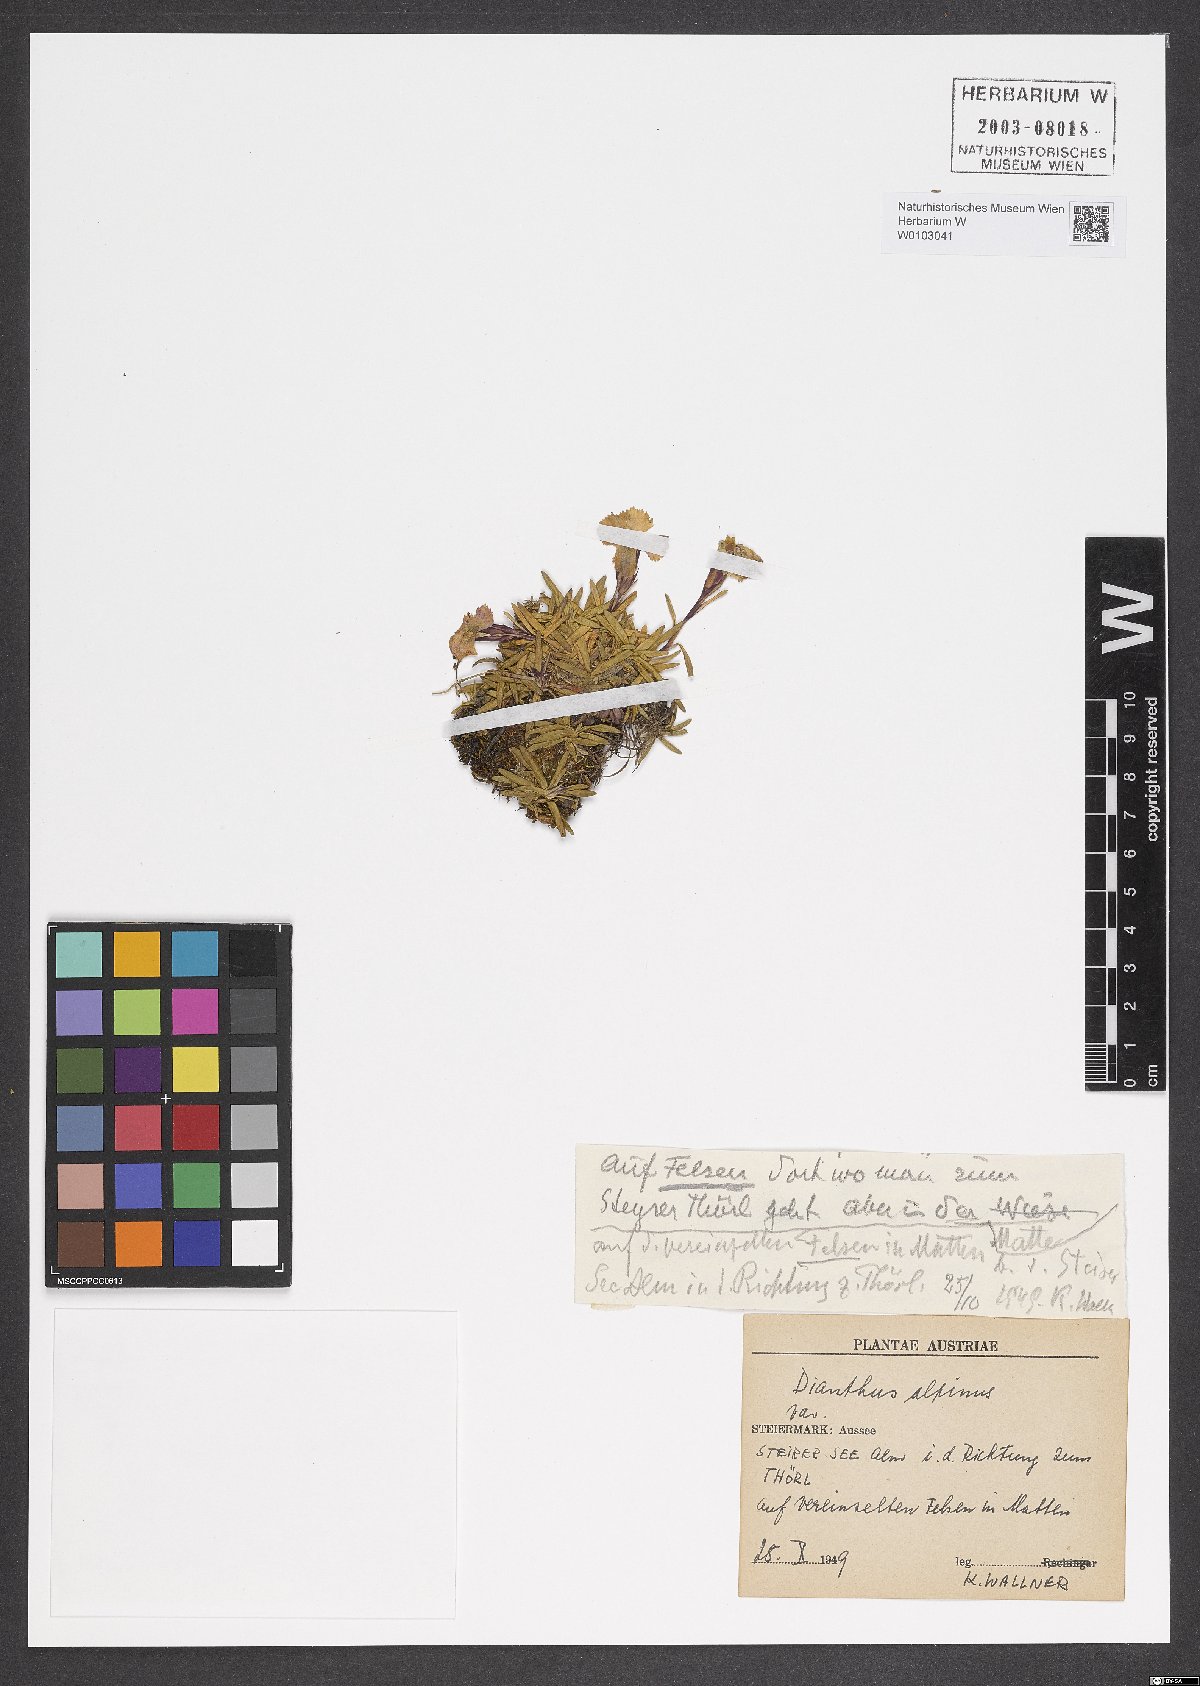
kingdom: Plantae
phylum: Tracheophyta
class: Magnoliopsida
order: Caryophyllales
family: Caryophyllaceae
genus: Dianthus
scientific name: Dianthus alpinus
